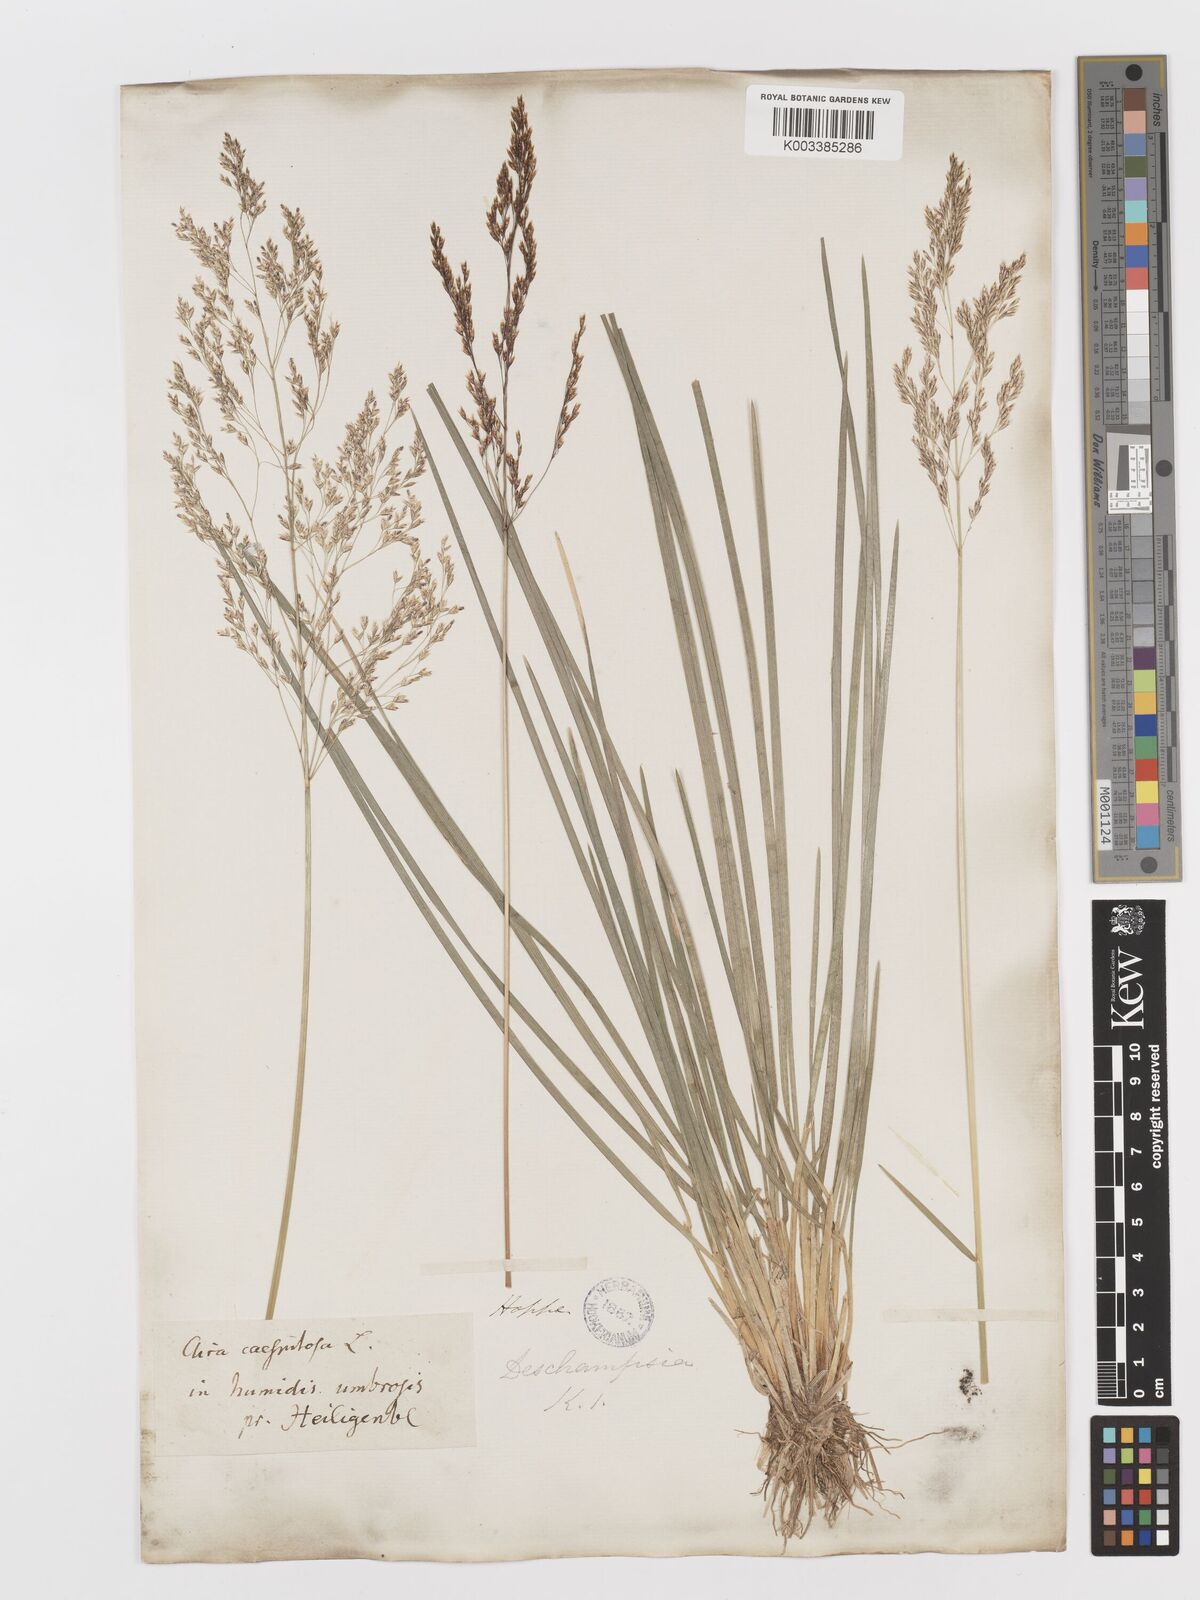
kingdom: Plantae
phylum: Tracheophyta
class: Liliopsida
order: Poales
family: Poaceae
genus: Deschampsia
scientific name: Deschampsia cespitosa
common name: Tufted hair-grass
